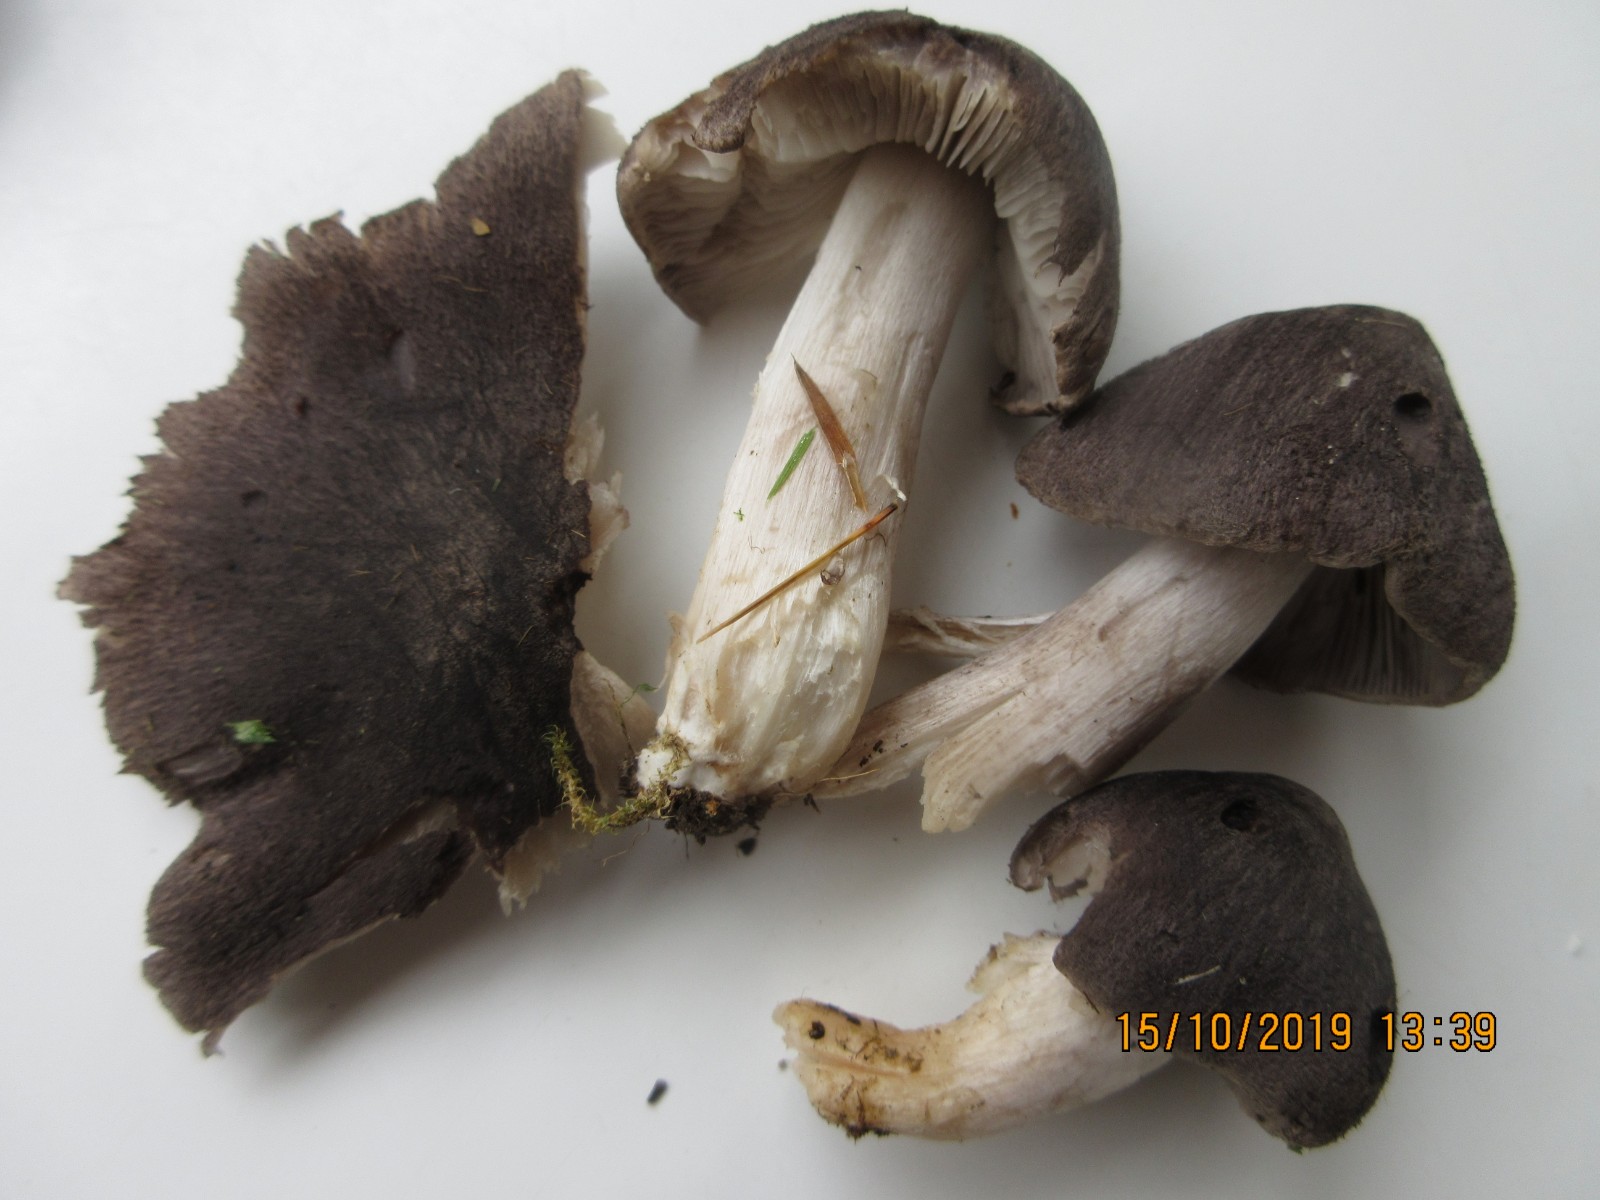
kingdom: Fungi
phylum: Basidiomycota
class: Agaricomycetes
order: Agaricales
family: Tricholomataceae
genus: Tricholoma
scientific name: Tricholoma terreum
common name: jordfarvet ridderhat
